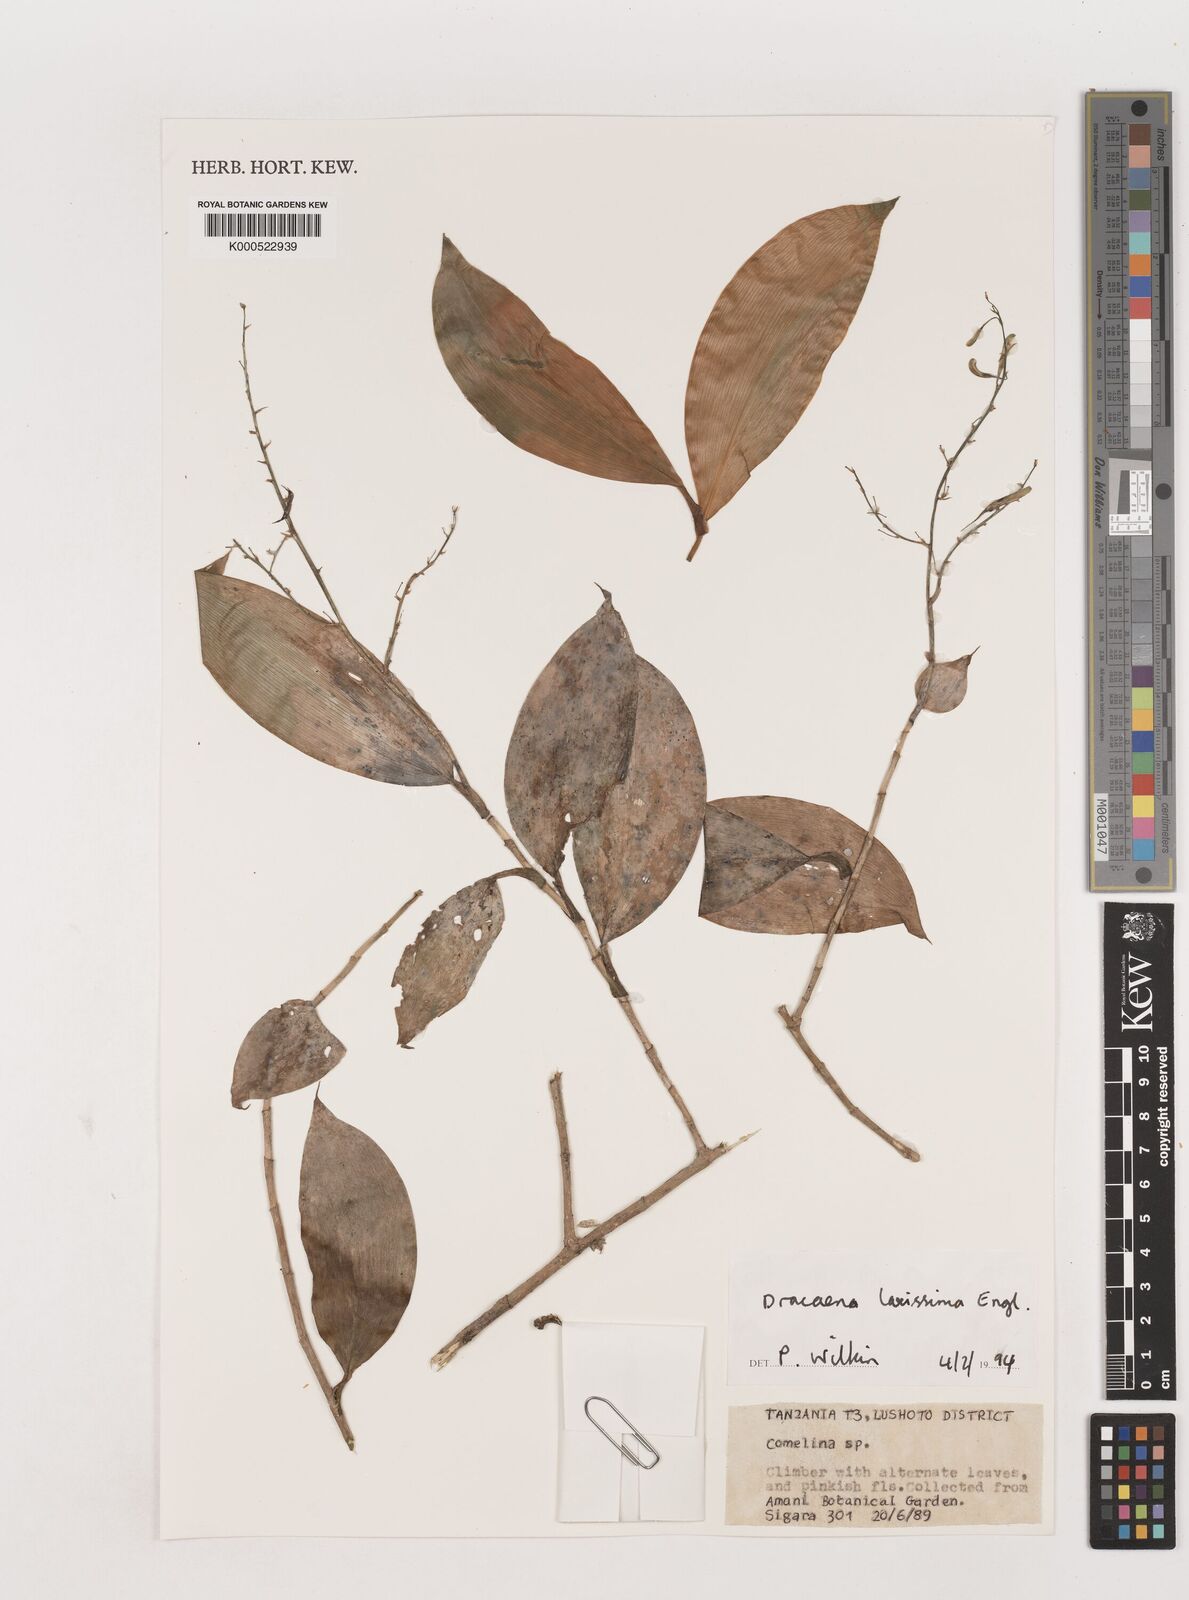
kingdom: Plantae
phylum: Tracheophyta
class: Liliopsida
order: Asparagales
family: Asparagaceae
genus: Dracaena
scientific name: Dracaena laxissima
